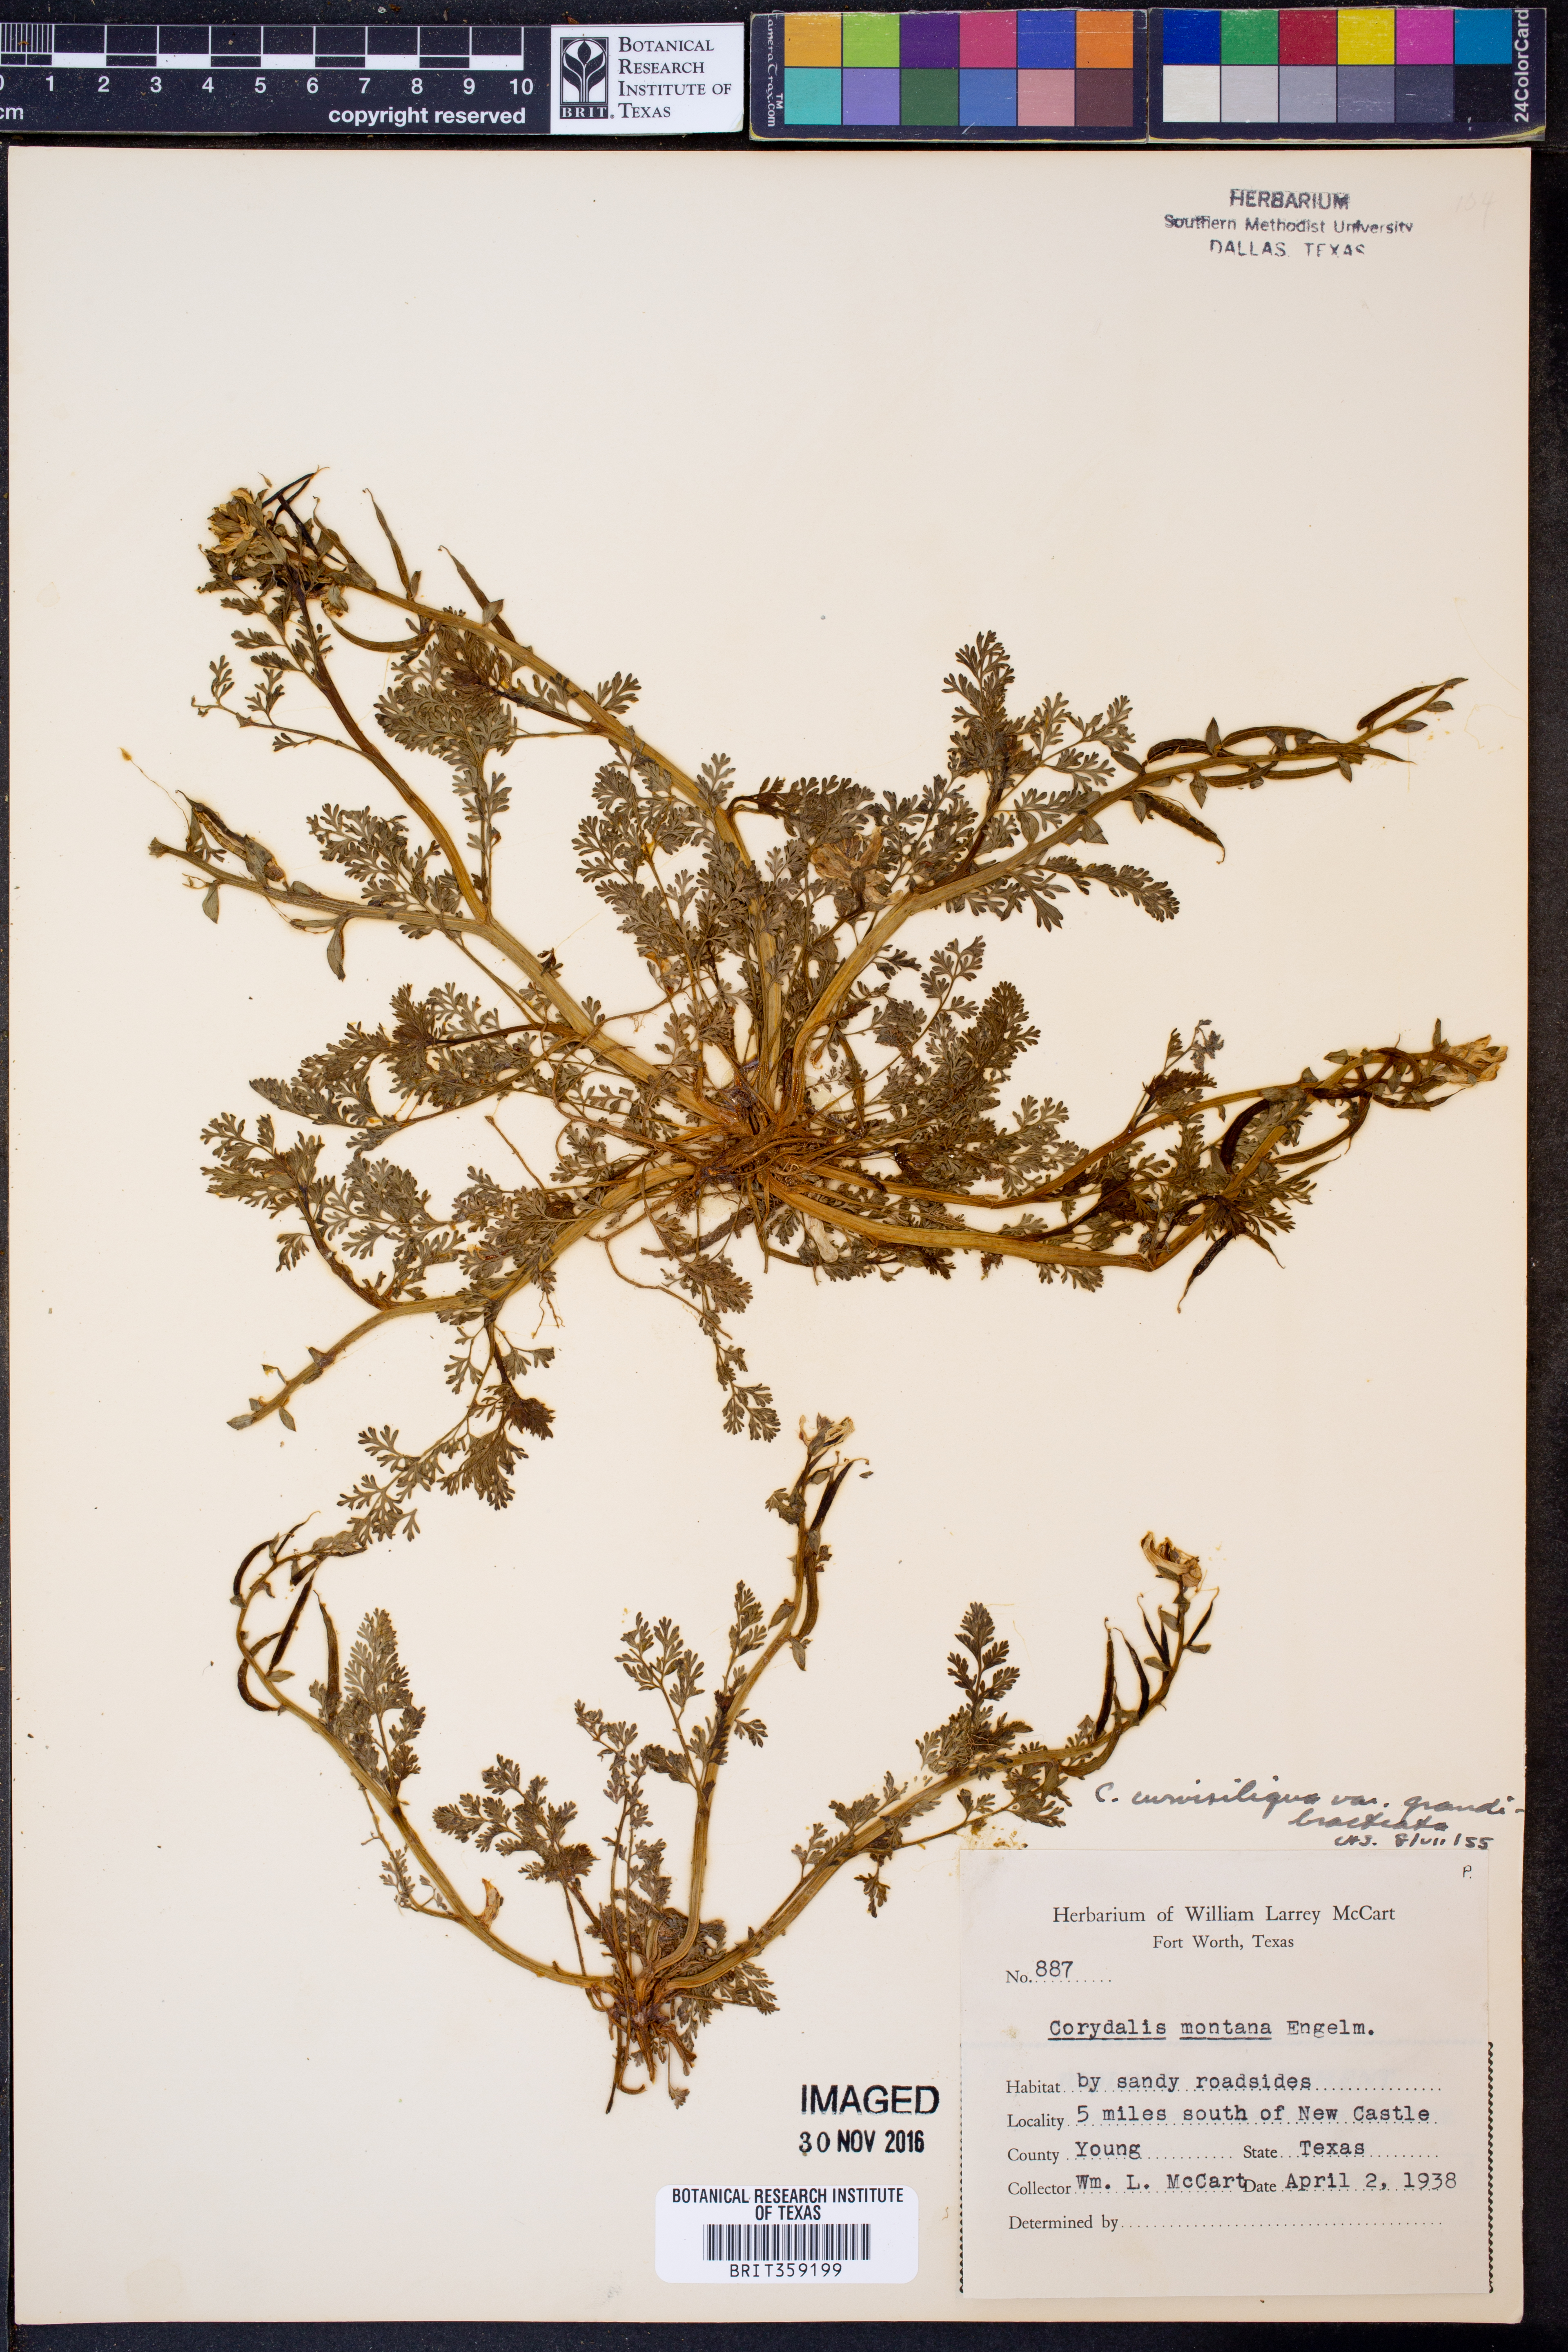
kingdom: Plantae
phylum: Tracheophyta
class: Magnoliopsida
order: Ranunculales
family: Papaveraceae
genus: Corydalis
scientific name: Corydalis curvisiliqua
